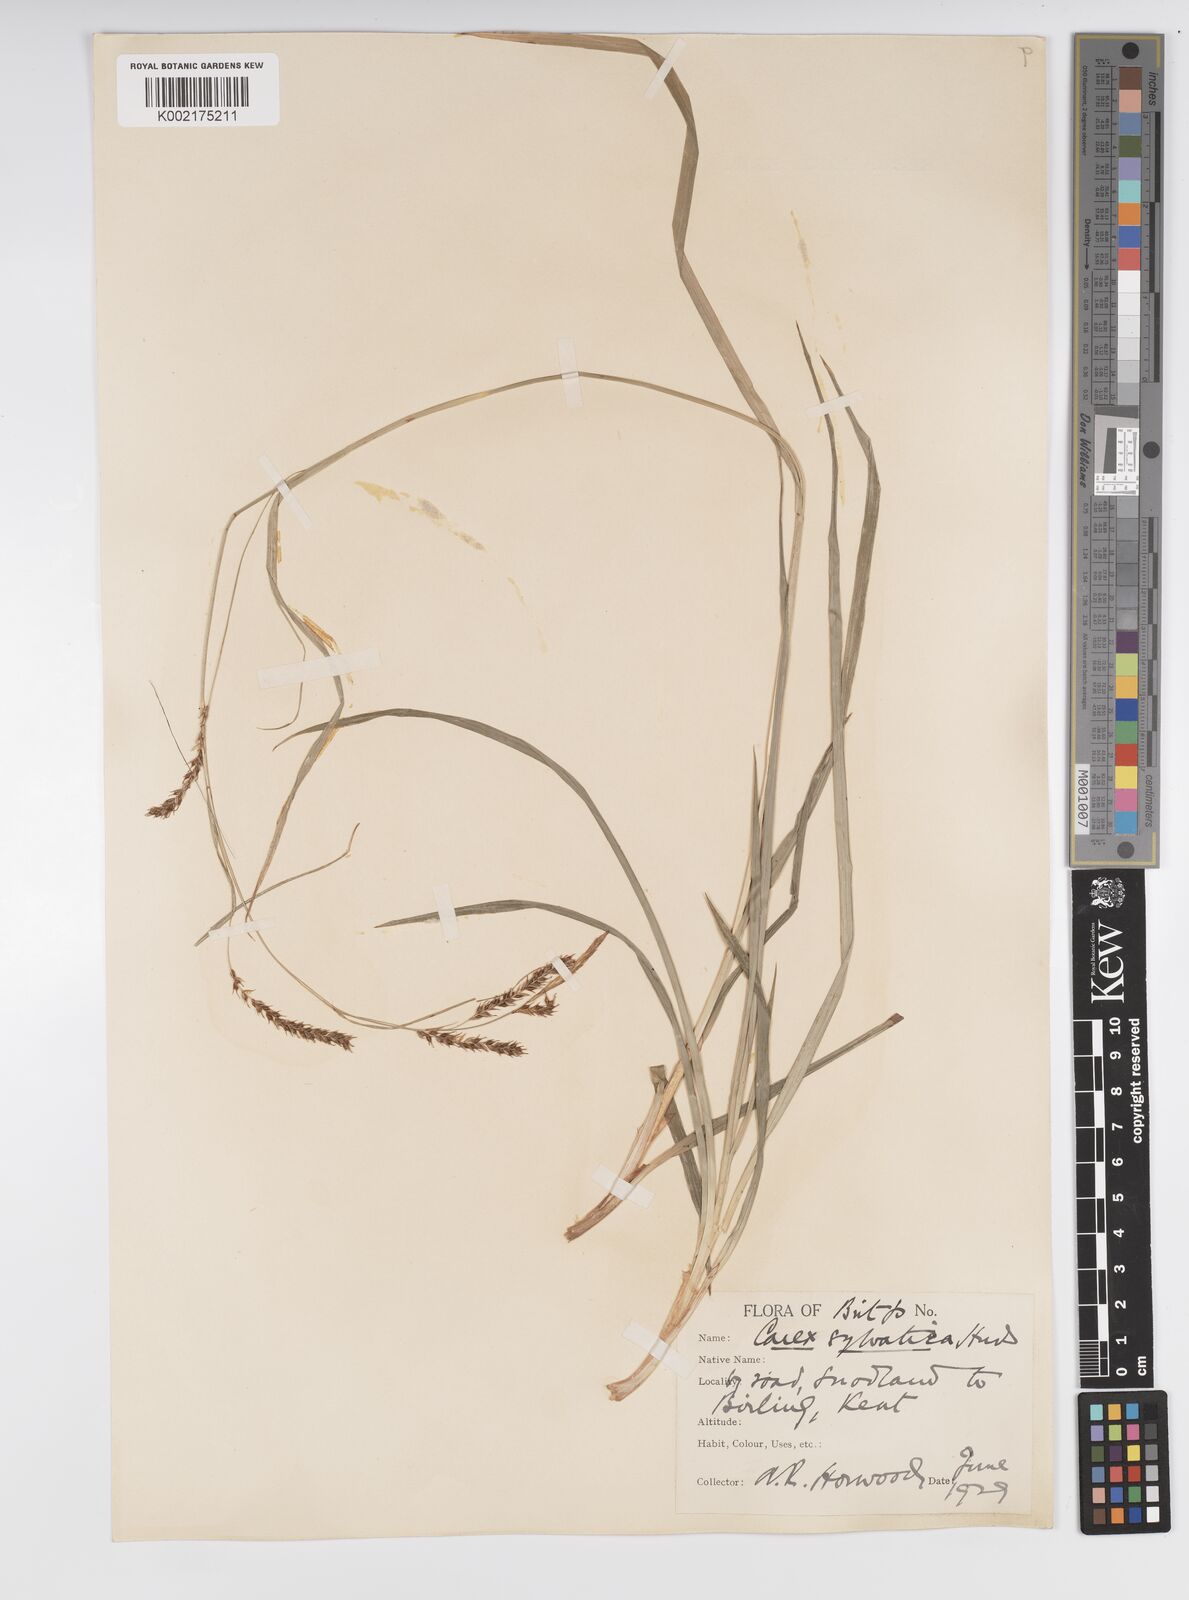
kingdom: Plantae
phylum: Tracheophyta
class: Liliopsida
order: Poales
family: Cyperaceae
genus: Carex
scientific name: Carex sylvatica
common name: Wood-sedge
